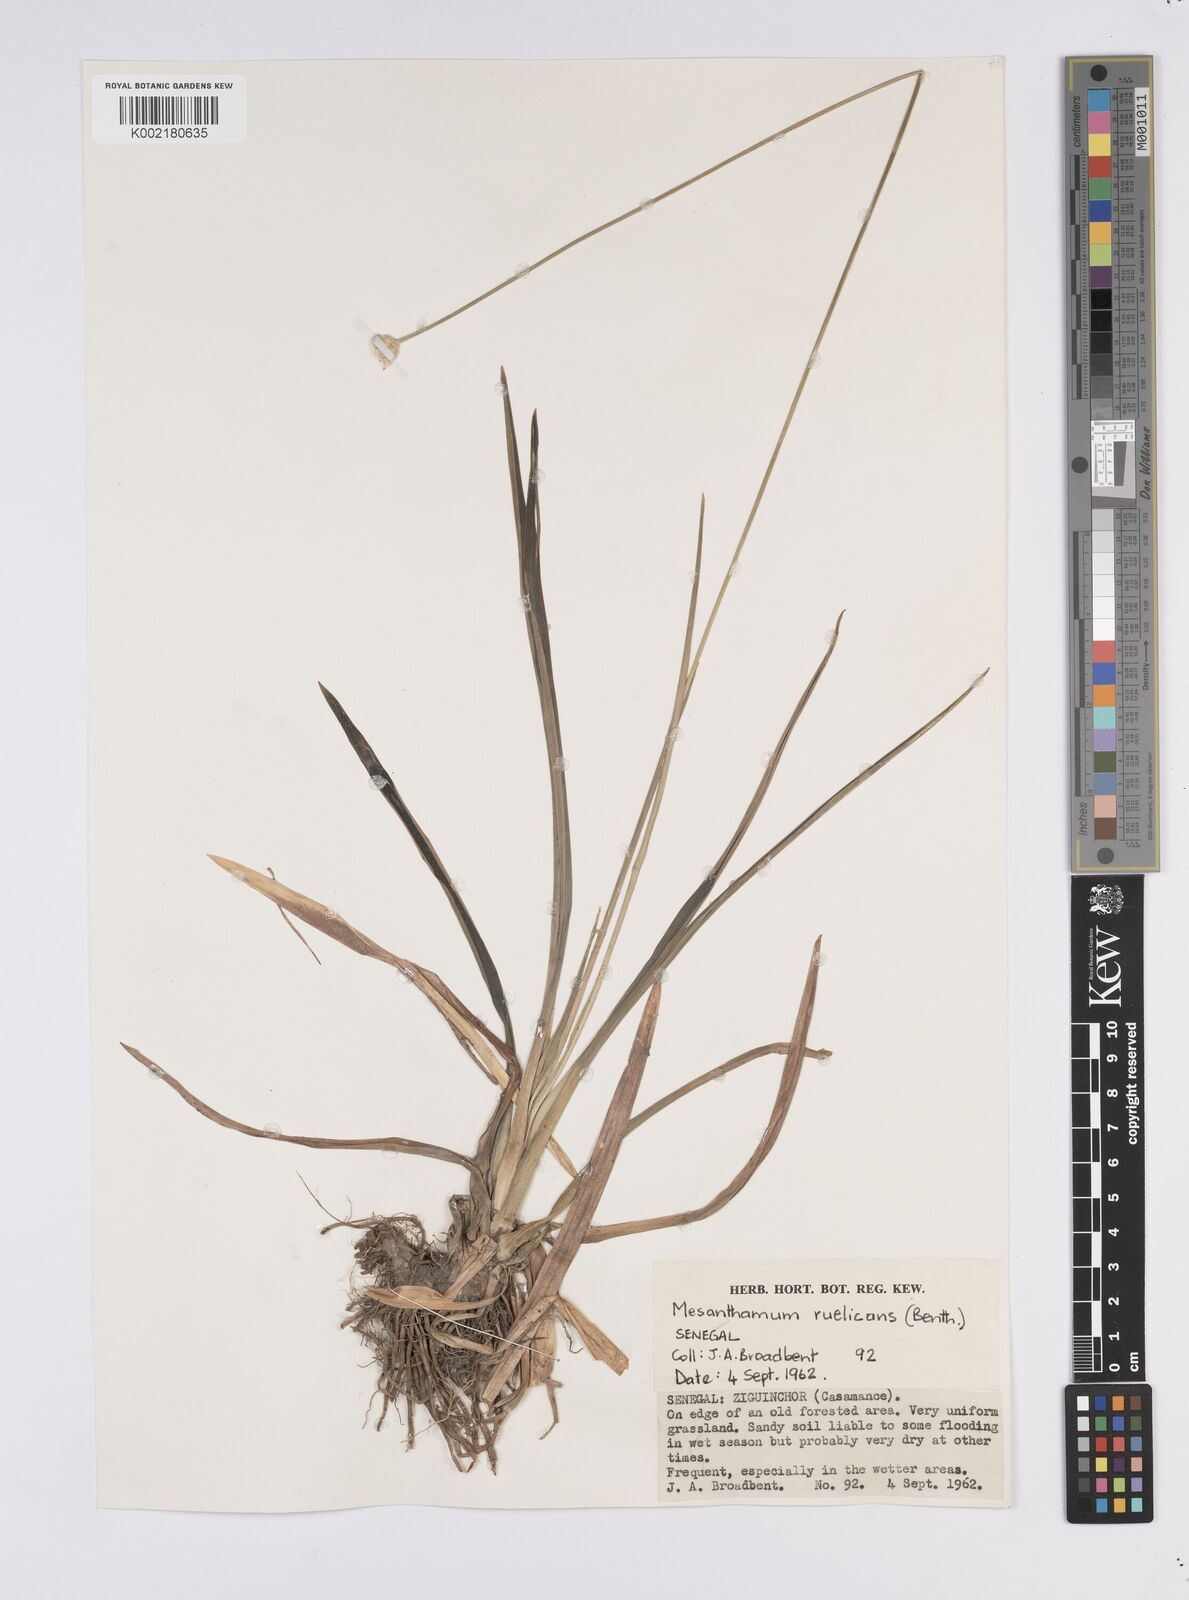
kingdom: Plantae
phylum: Tracheophyta
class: Liliopsida
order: Poales
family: Eriocaulaceae
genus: Mesanthemum
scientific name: Mesanthemum radicans
